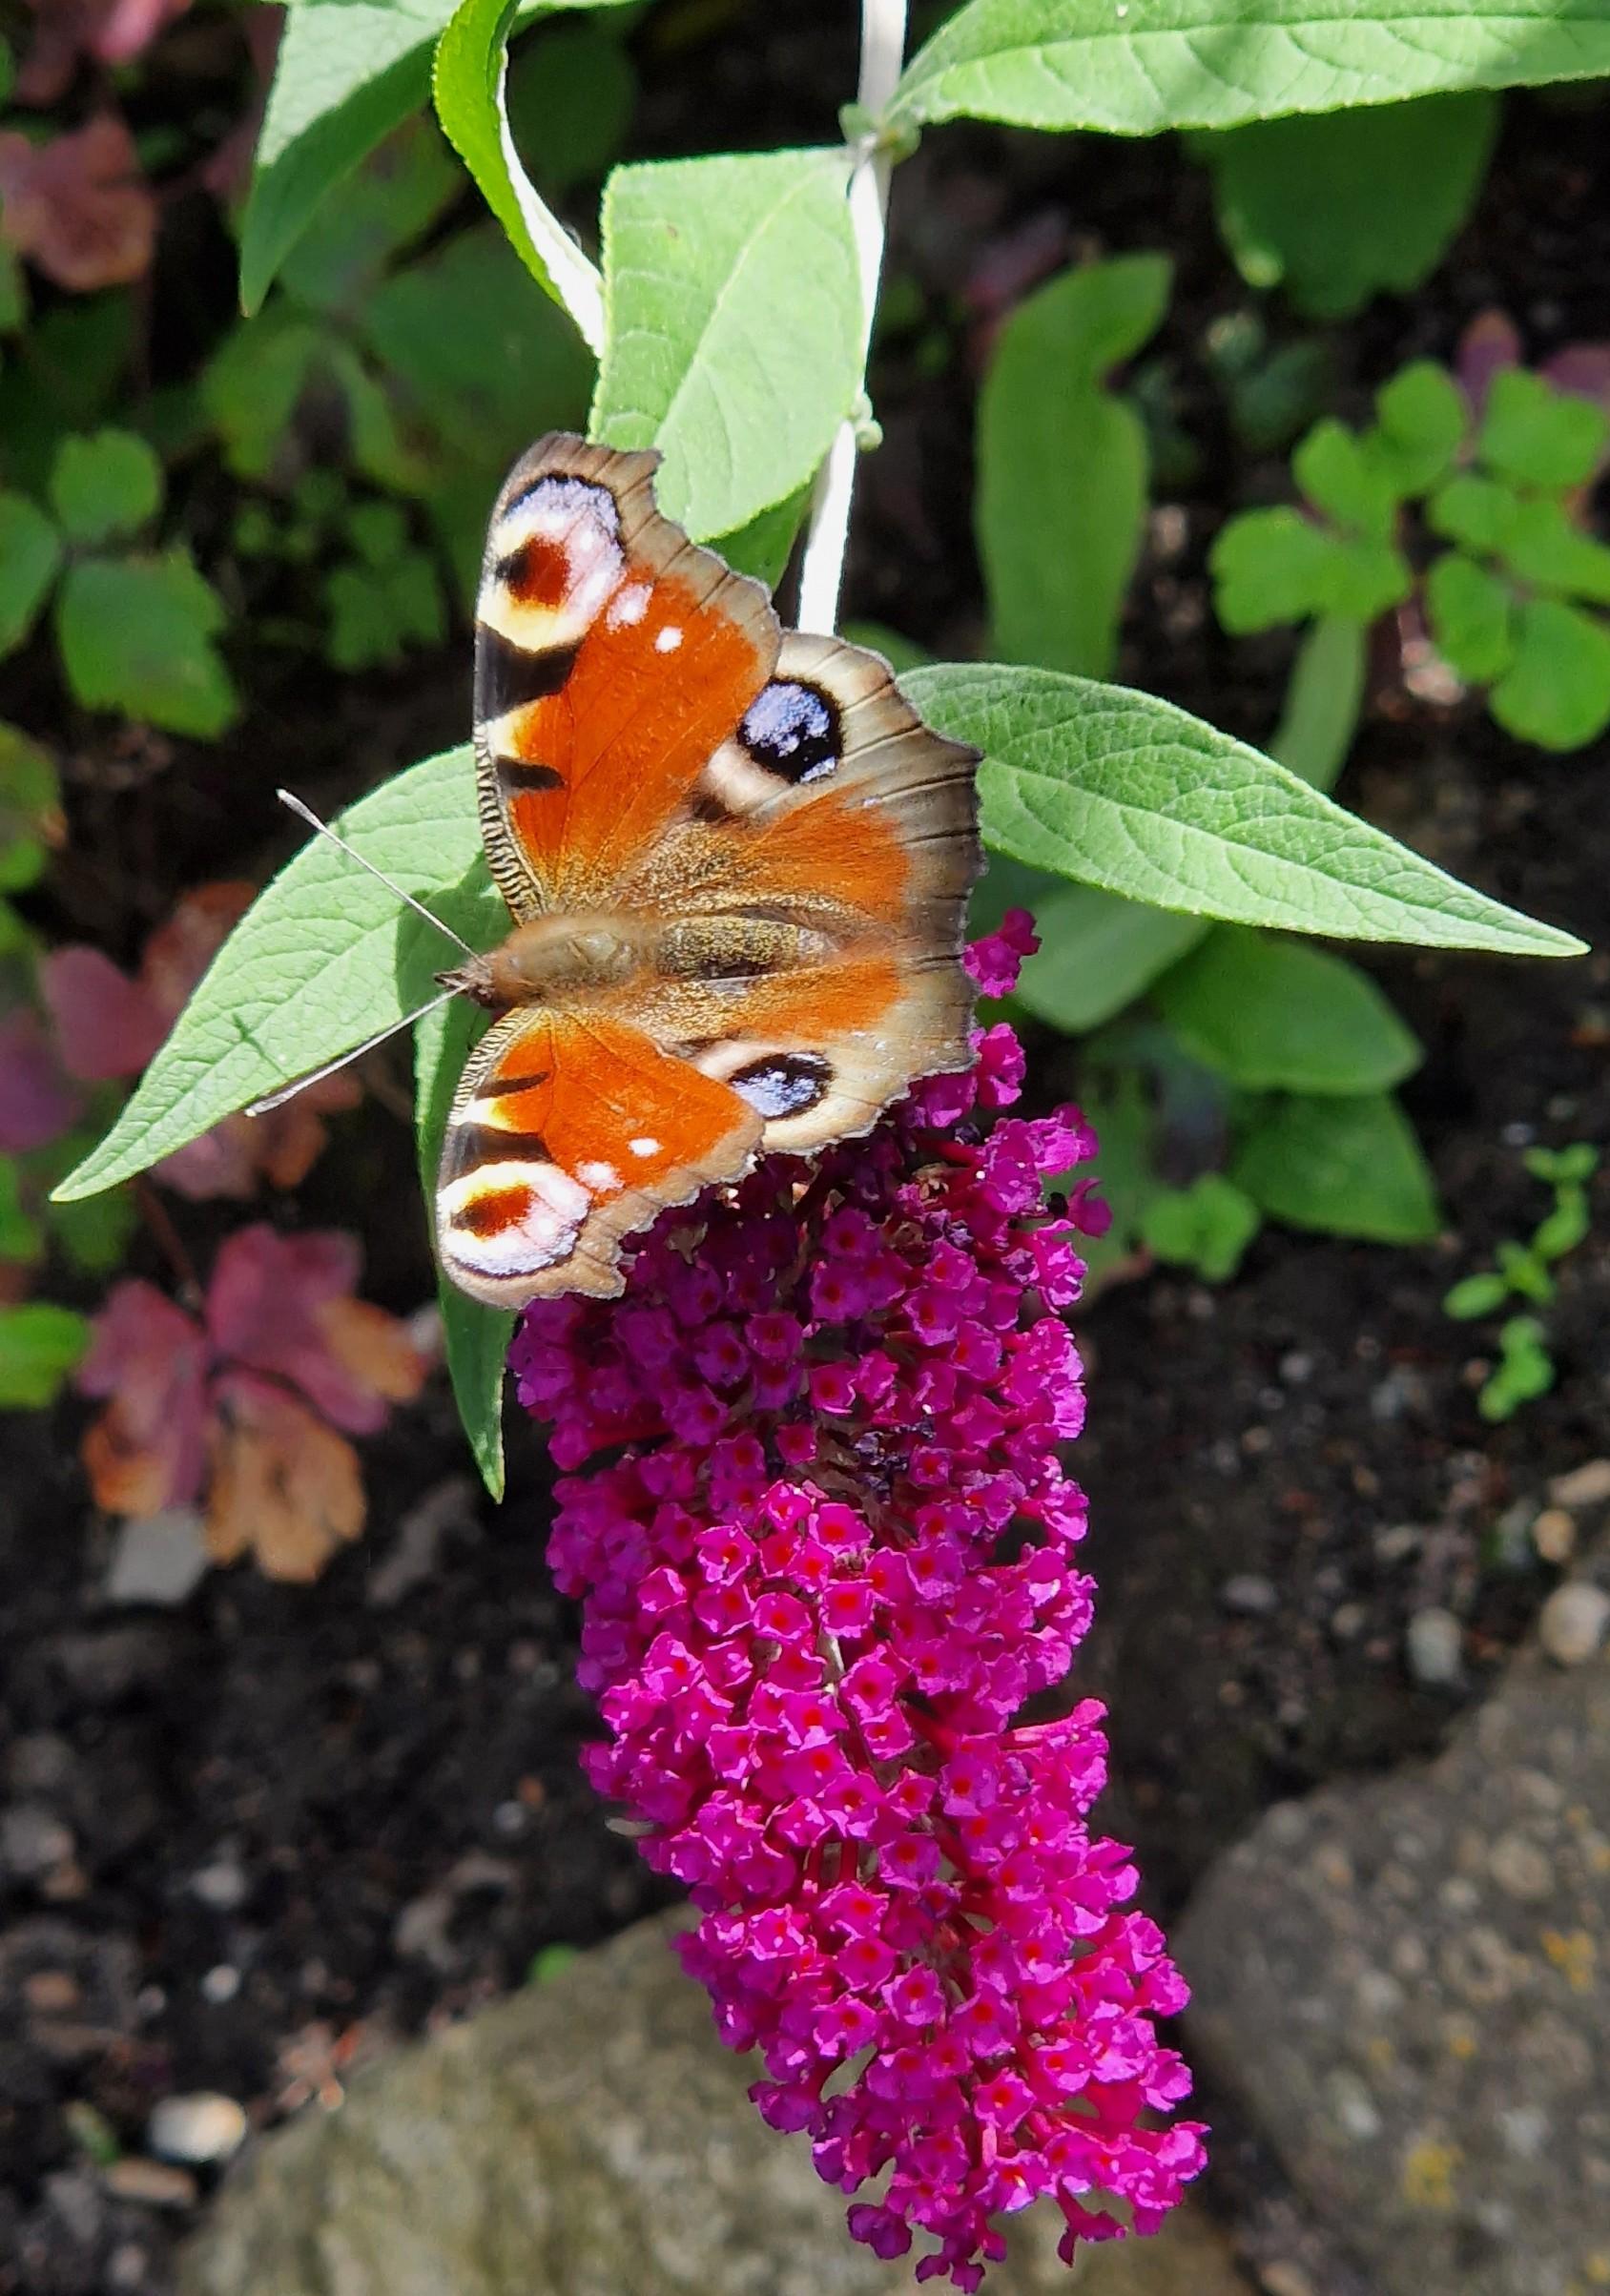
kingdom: Animalia
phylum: Arthropoda
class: Insecta
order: Lepidoptera
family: Nymphalidae
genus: Aglais
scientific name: Aglais io
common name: Dagpåfugleøje
